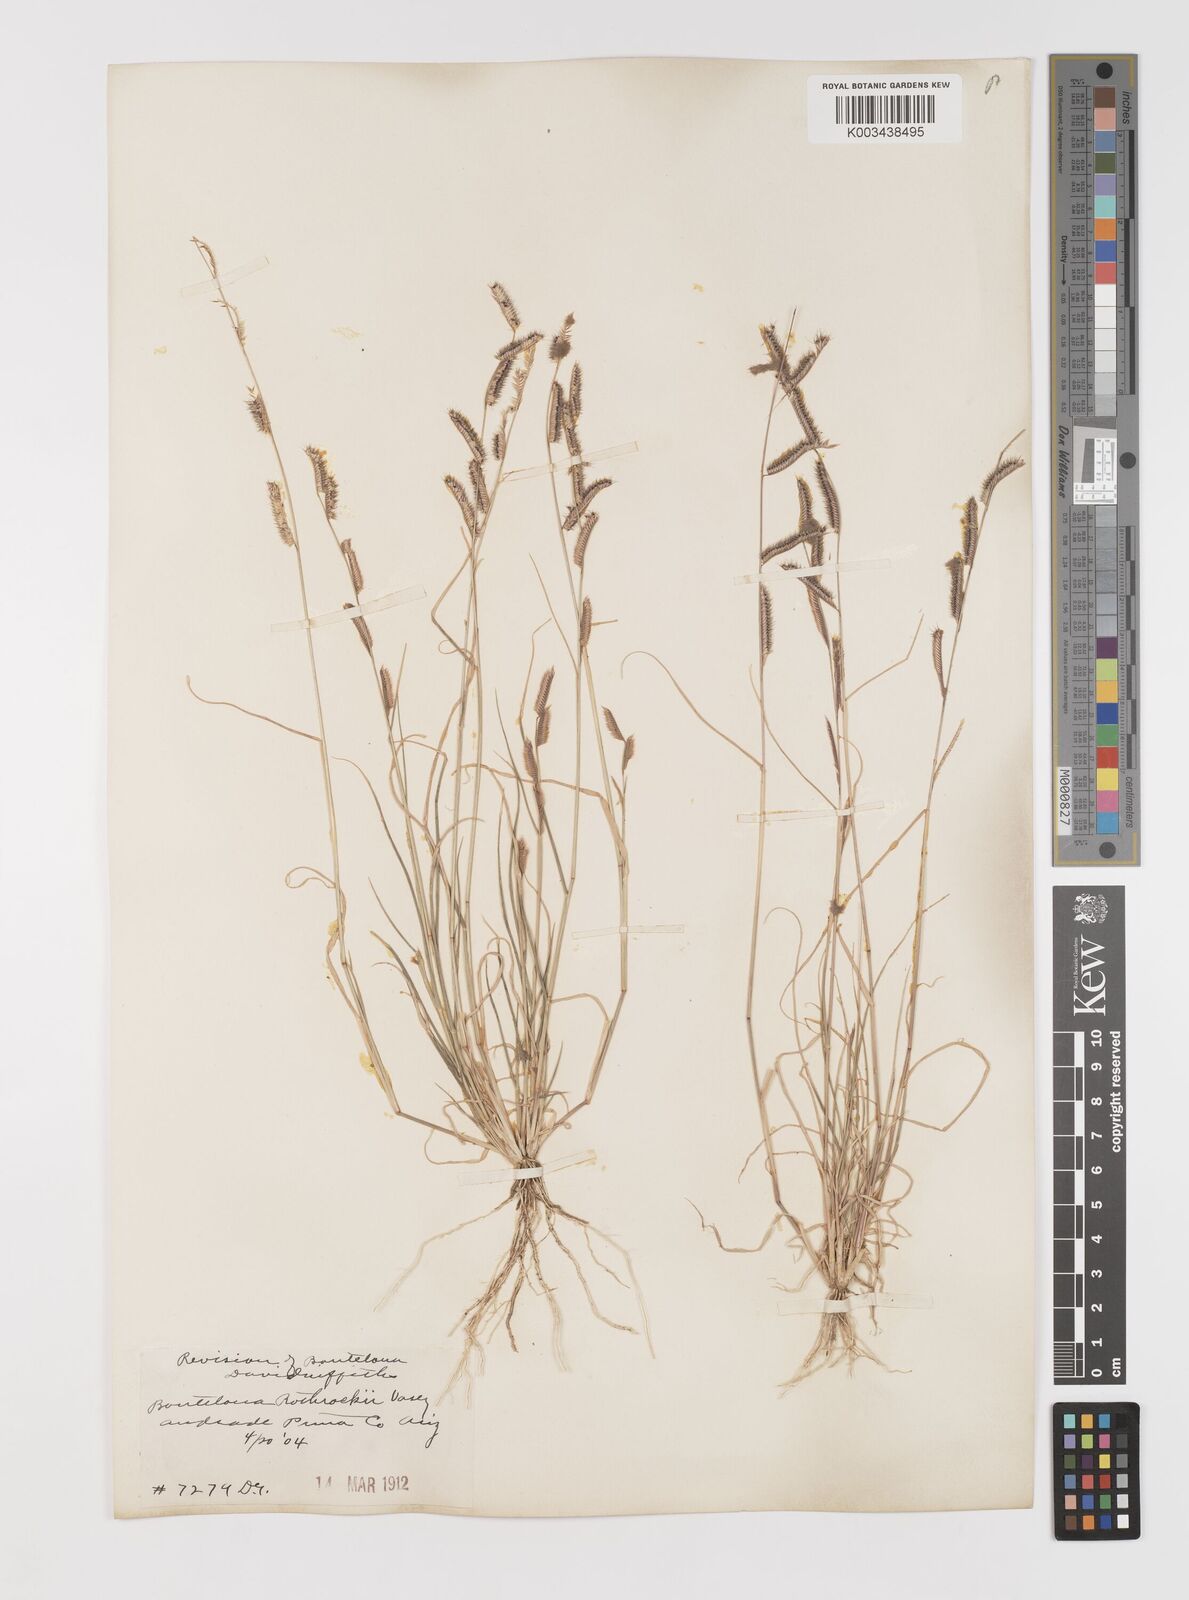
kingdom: Plantae
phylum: Tracheophyta
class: Liliopsida
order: Poales
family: Poaceae
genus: Bouteloua
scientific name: Bouteloua
